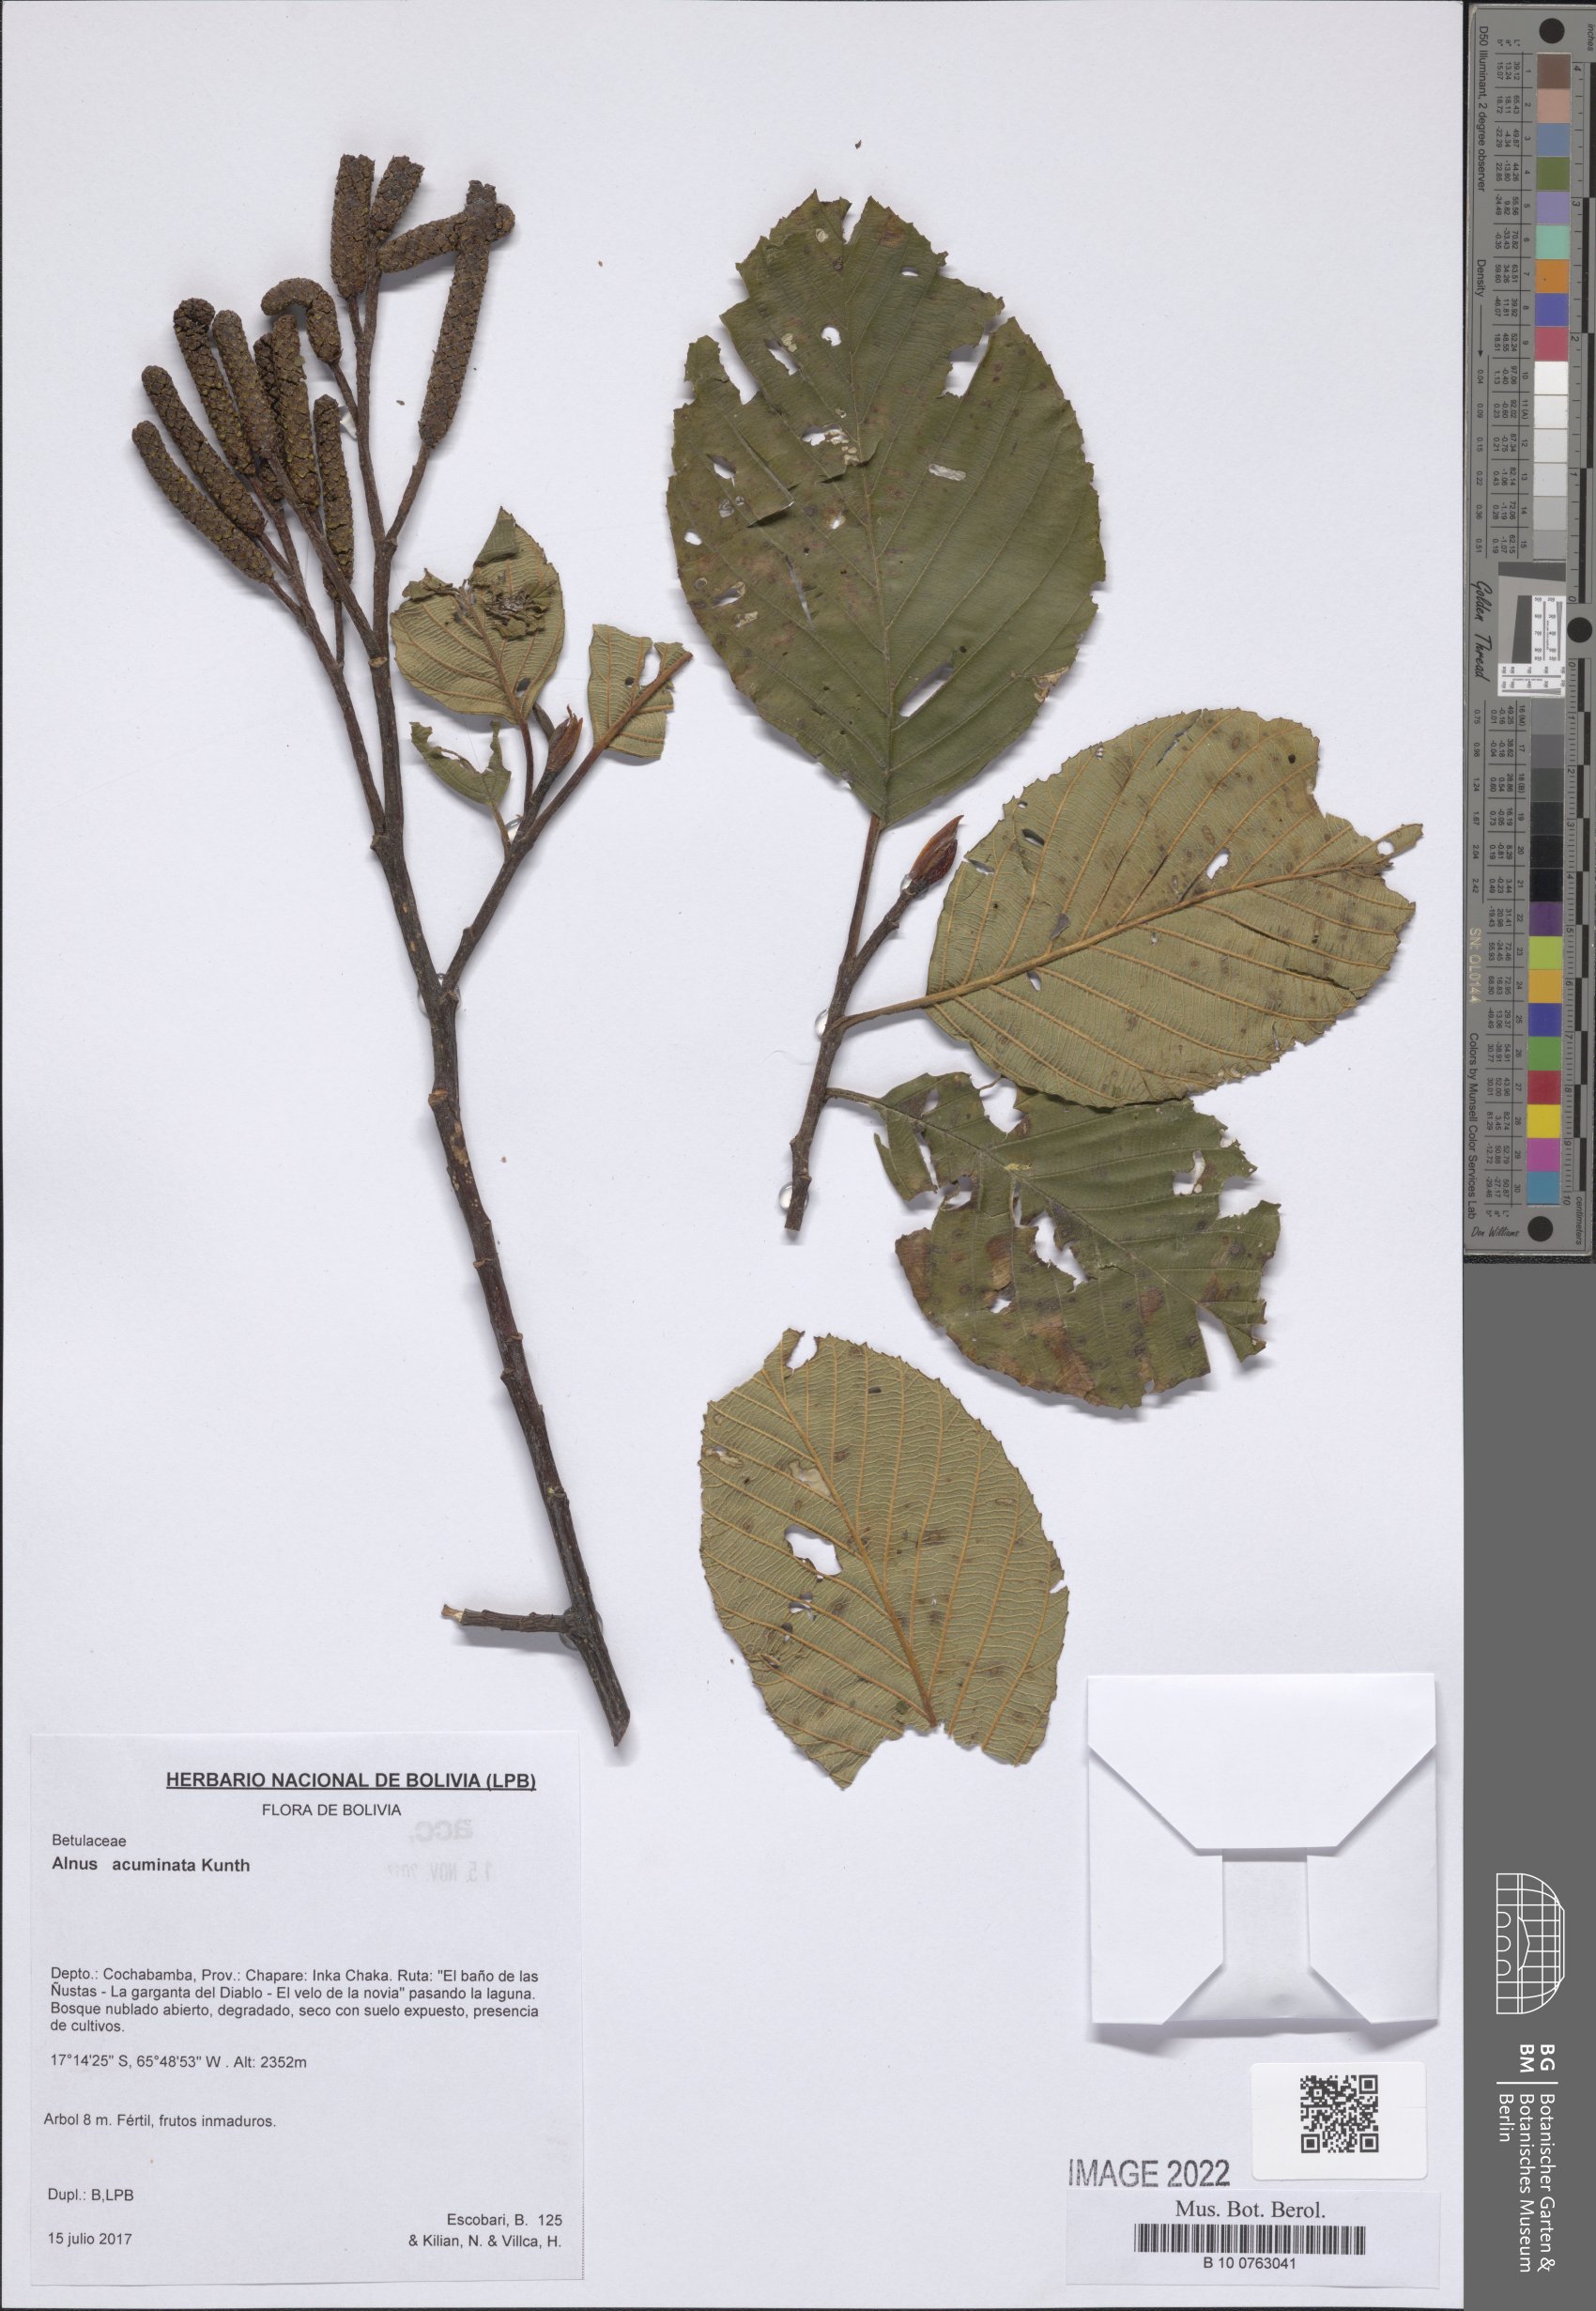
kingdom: Plantae
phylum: Tracheophyta
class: Magnoliopsida
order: Fagales
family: Betulaceae
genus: Alnus
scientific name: Alnus acuminata
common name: Alder
